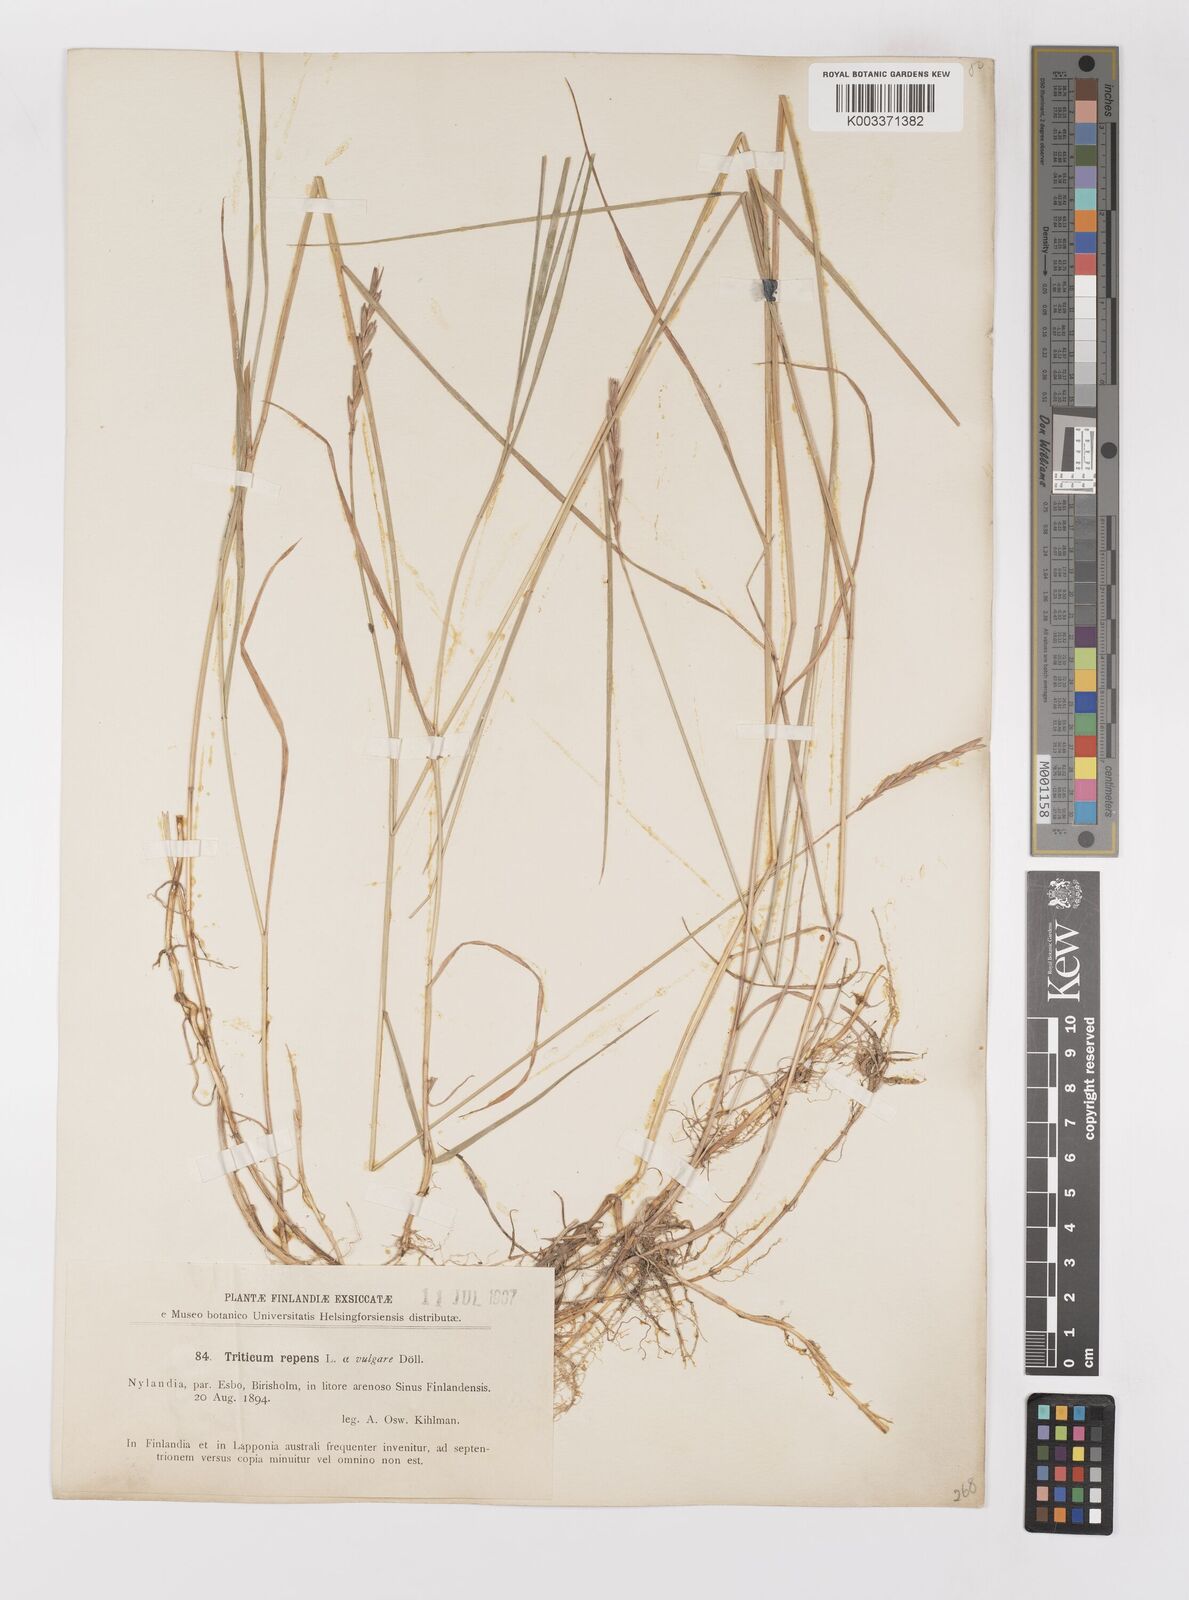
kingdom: Plantae
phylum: Tracheophyta
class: Liliopsida
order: Poales
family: Poaceae
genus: Elymus
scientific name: Elymus repens
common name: Quackgrass
